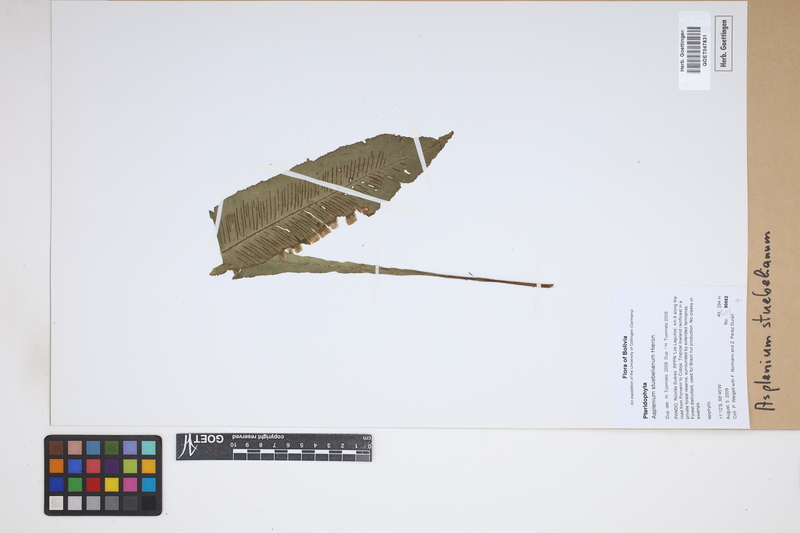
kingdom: Plantae
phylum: Tracheophyta
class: Polypodiopsida
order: Polypodiales
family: Aspleniaceae
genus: Asplenium
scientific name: Asplenium stuebelianum
